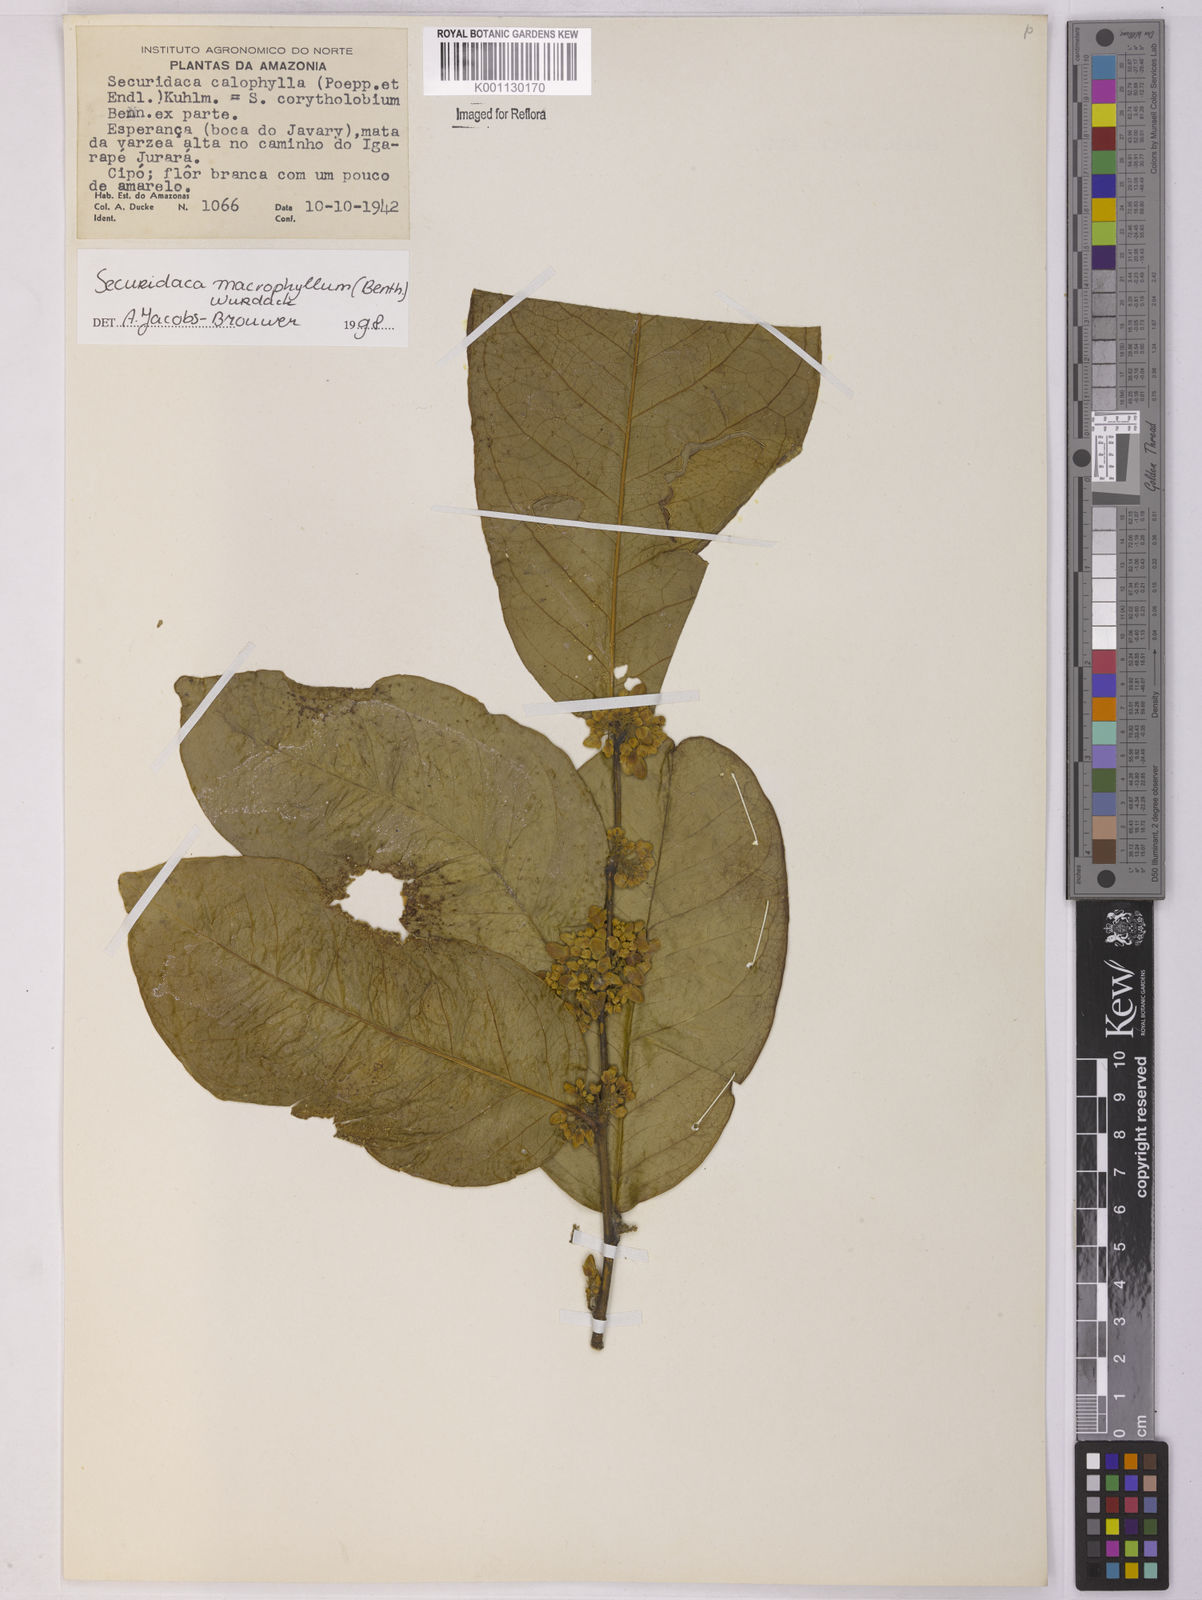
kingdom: Plantae
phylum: Tracheophyta
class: Magnoliopsida
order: Fabales
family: Polygalaceae
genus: Securidaca
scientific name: Securidaca calophylla
